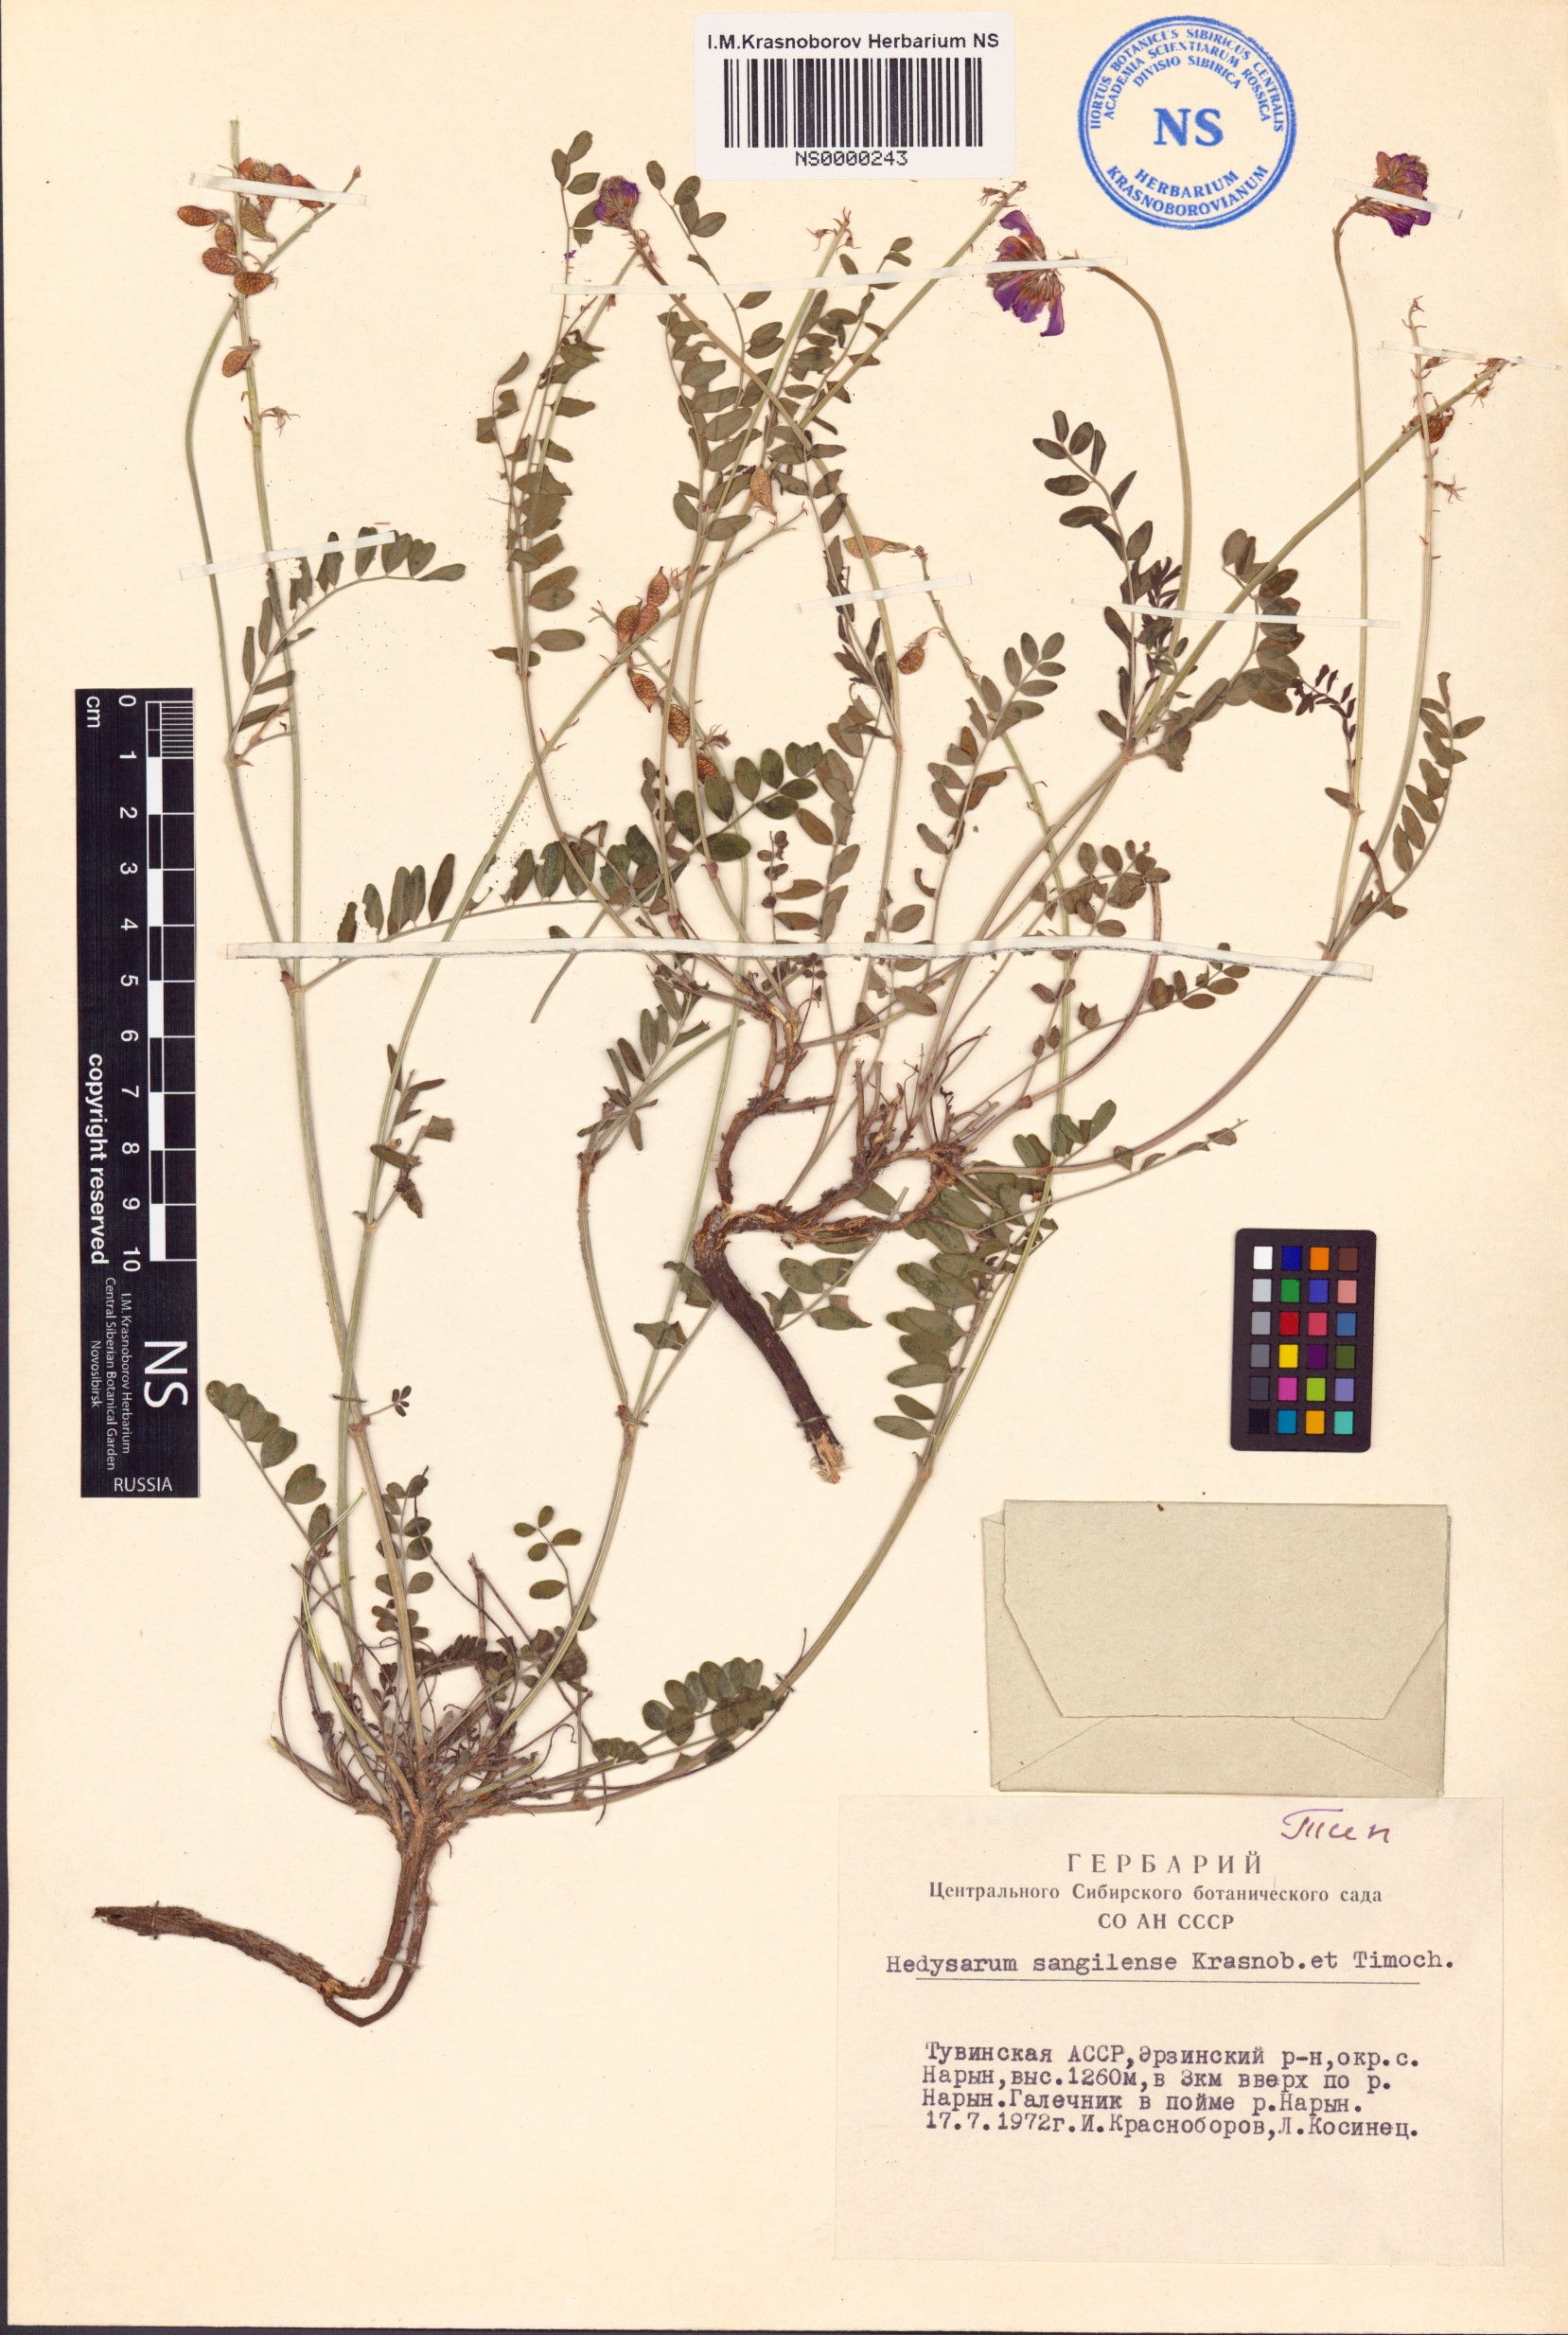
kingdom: Plantae
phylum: Tracheophyta
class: Magnoliopsida
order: Fabales
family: Fabaceae
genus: Hedysarum
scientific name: Hedysarum sangilense
